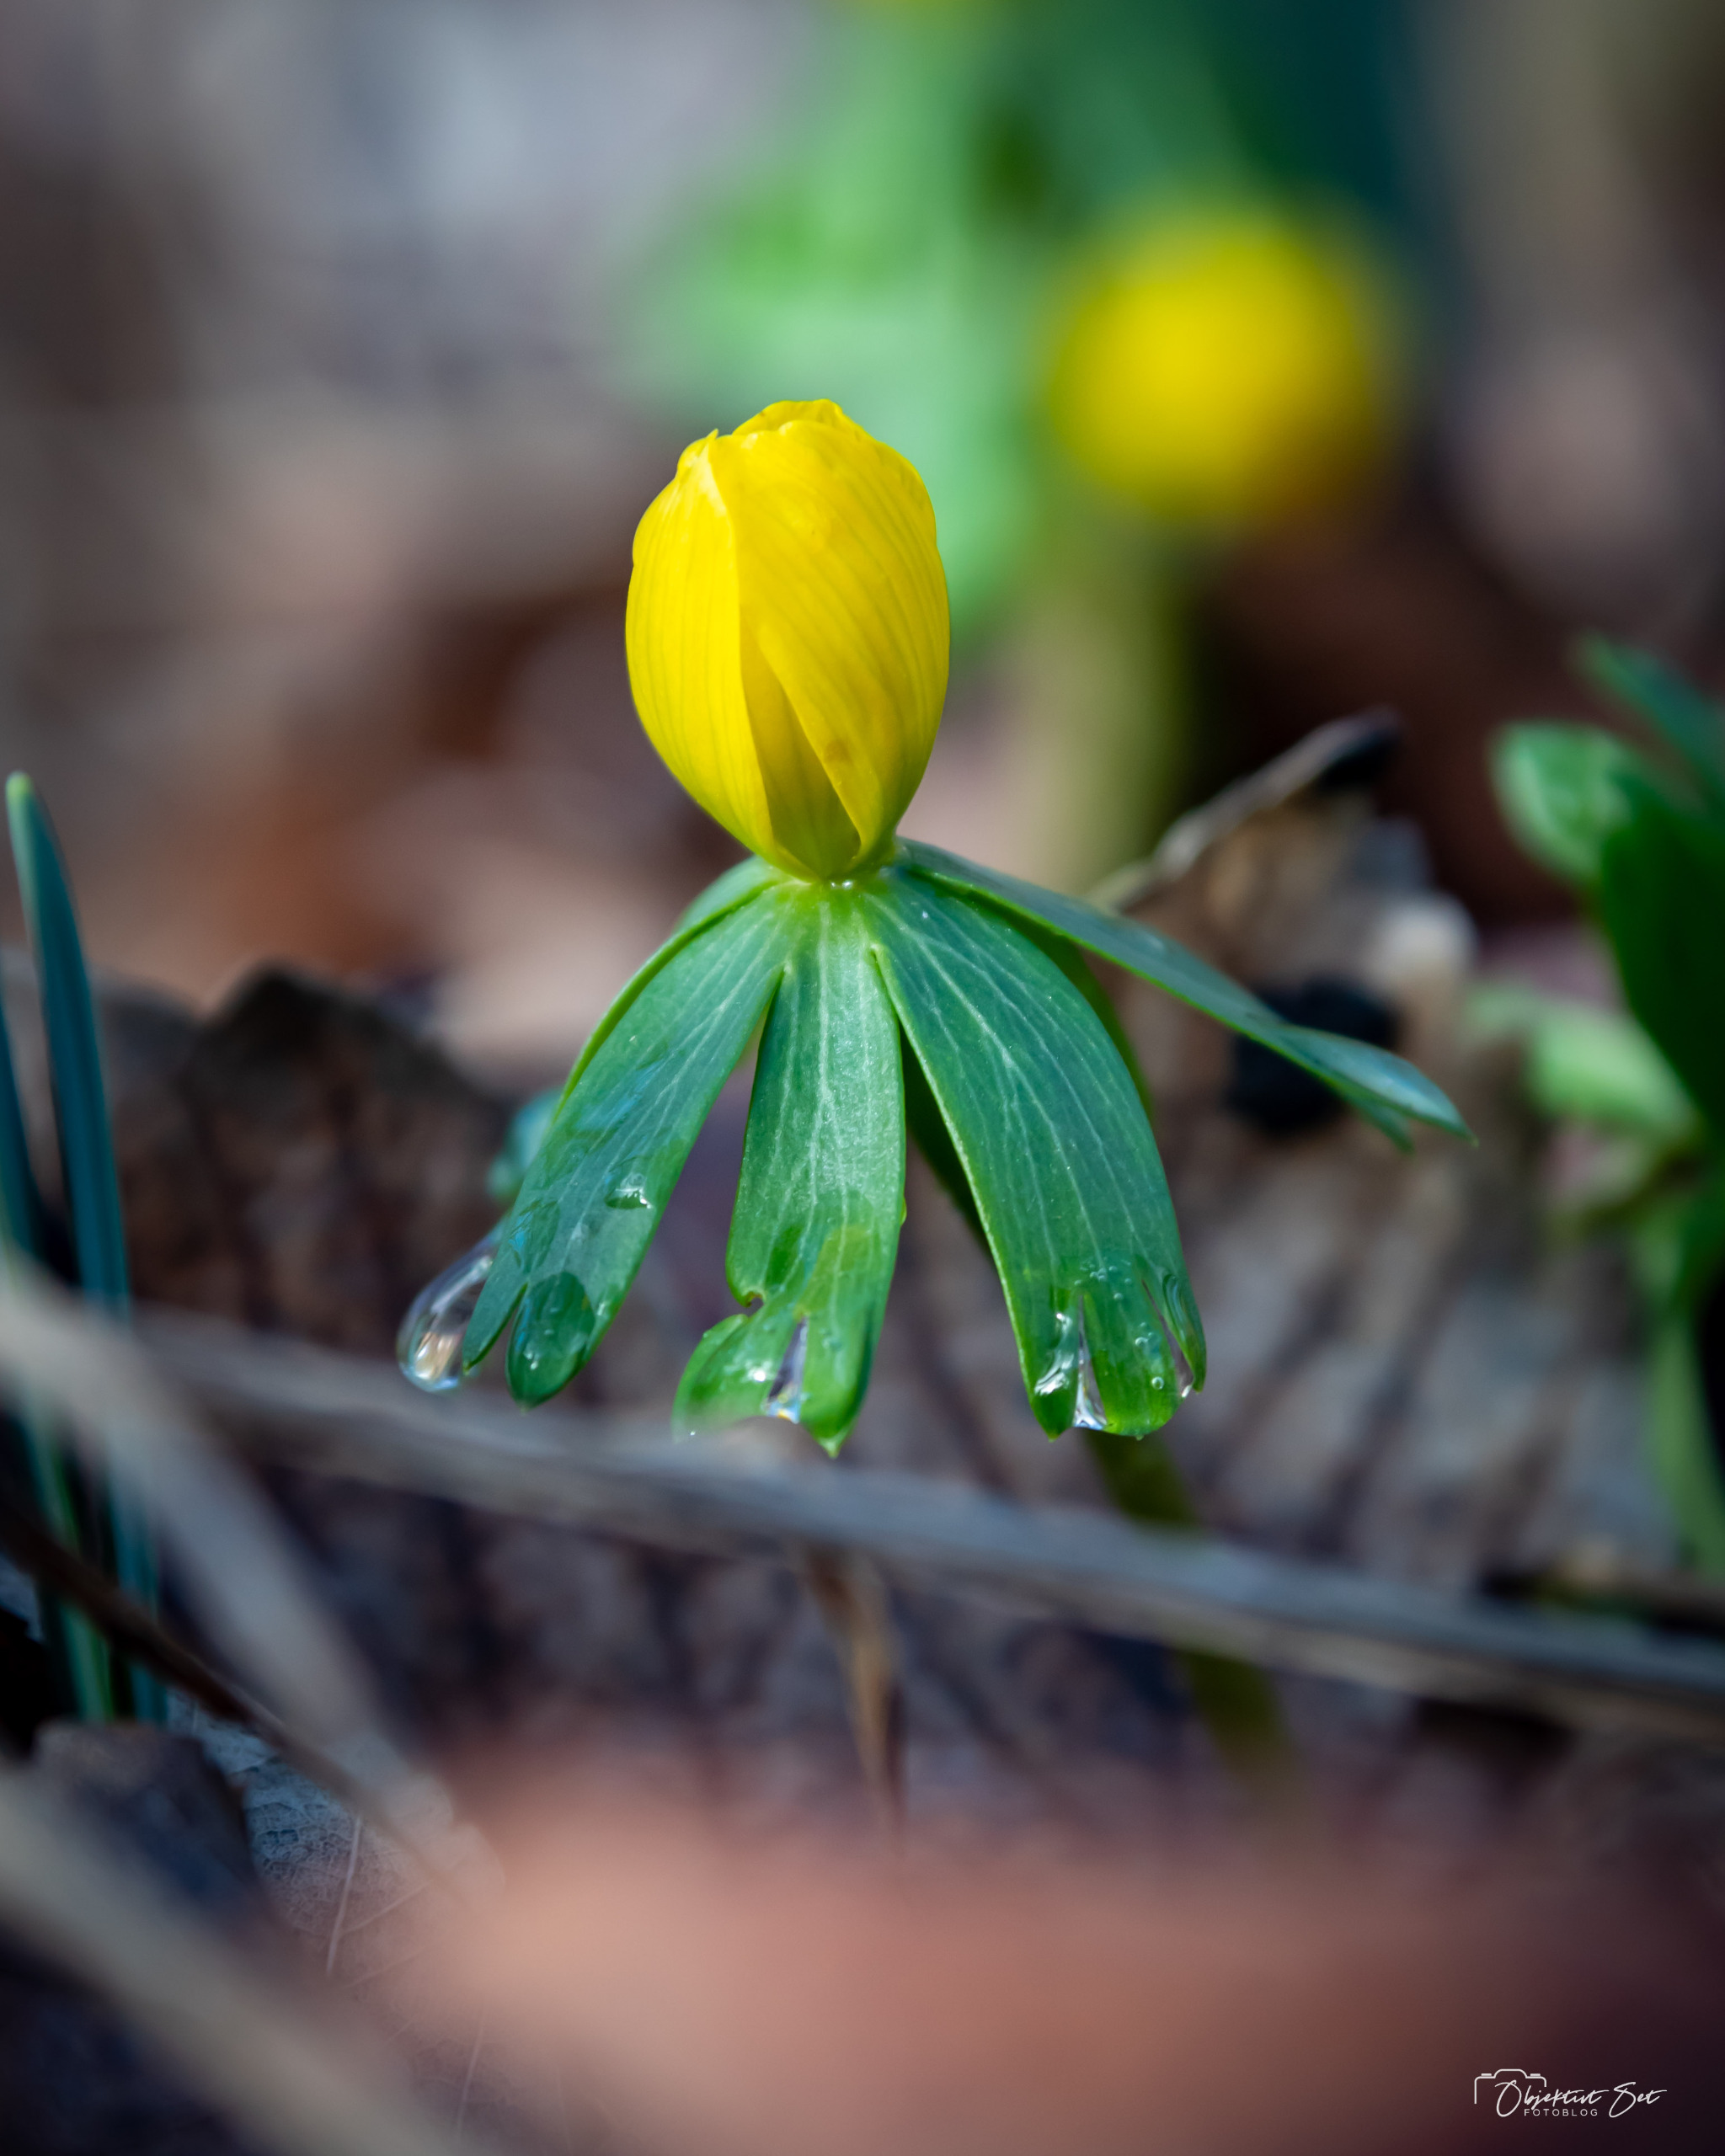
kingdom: Plantae
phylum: Tracheophyta
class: Magnoliopsida
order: Ranunculales
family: Ranunculaceae
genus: Eranthis
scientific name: Eranthis hyemalis
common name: Erantis
